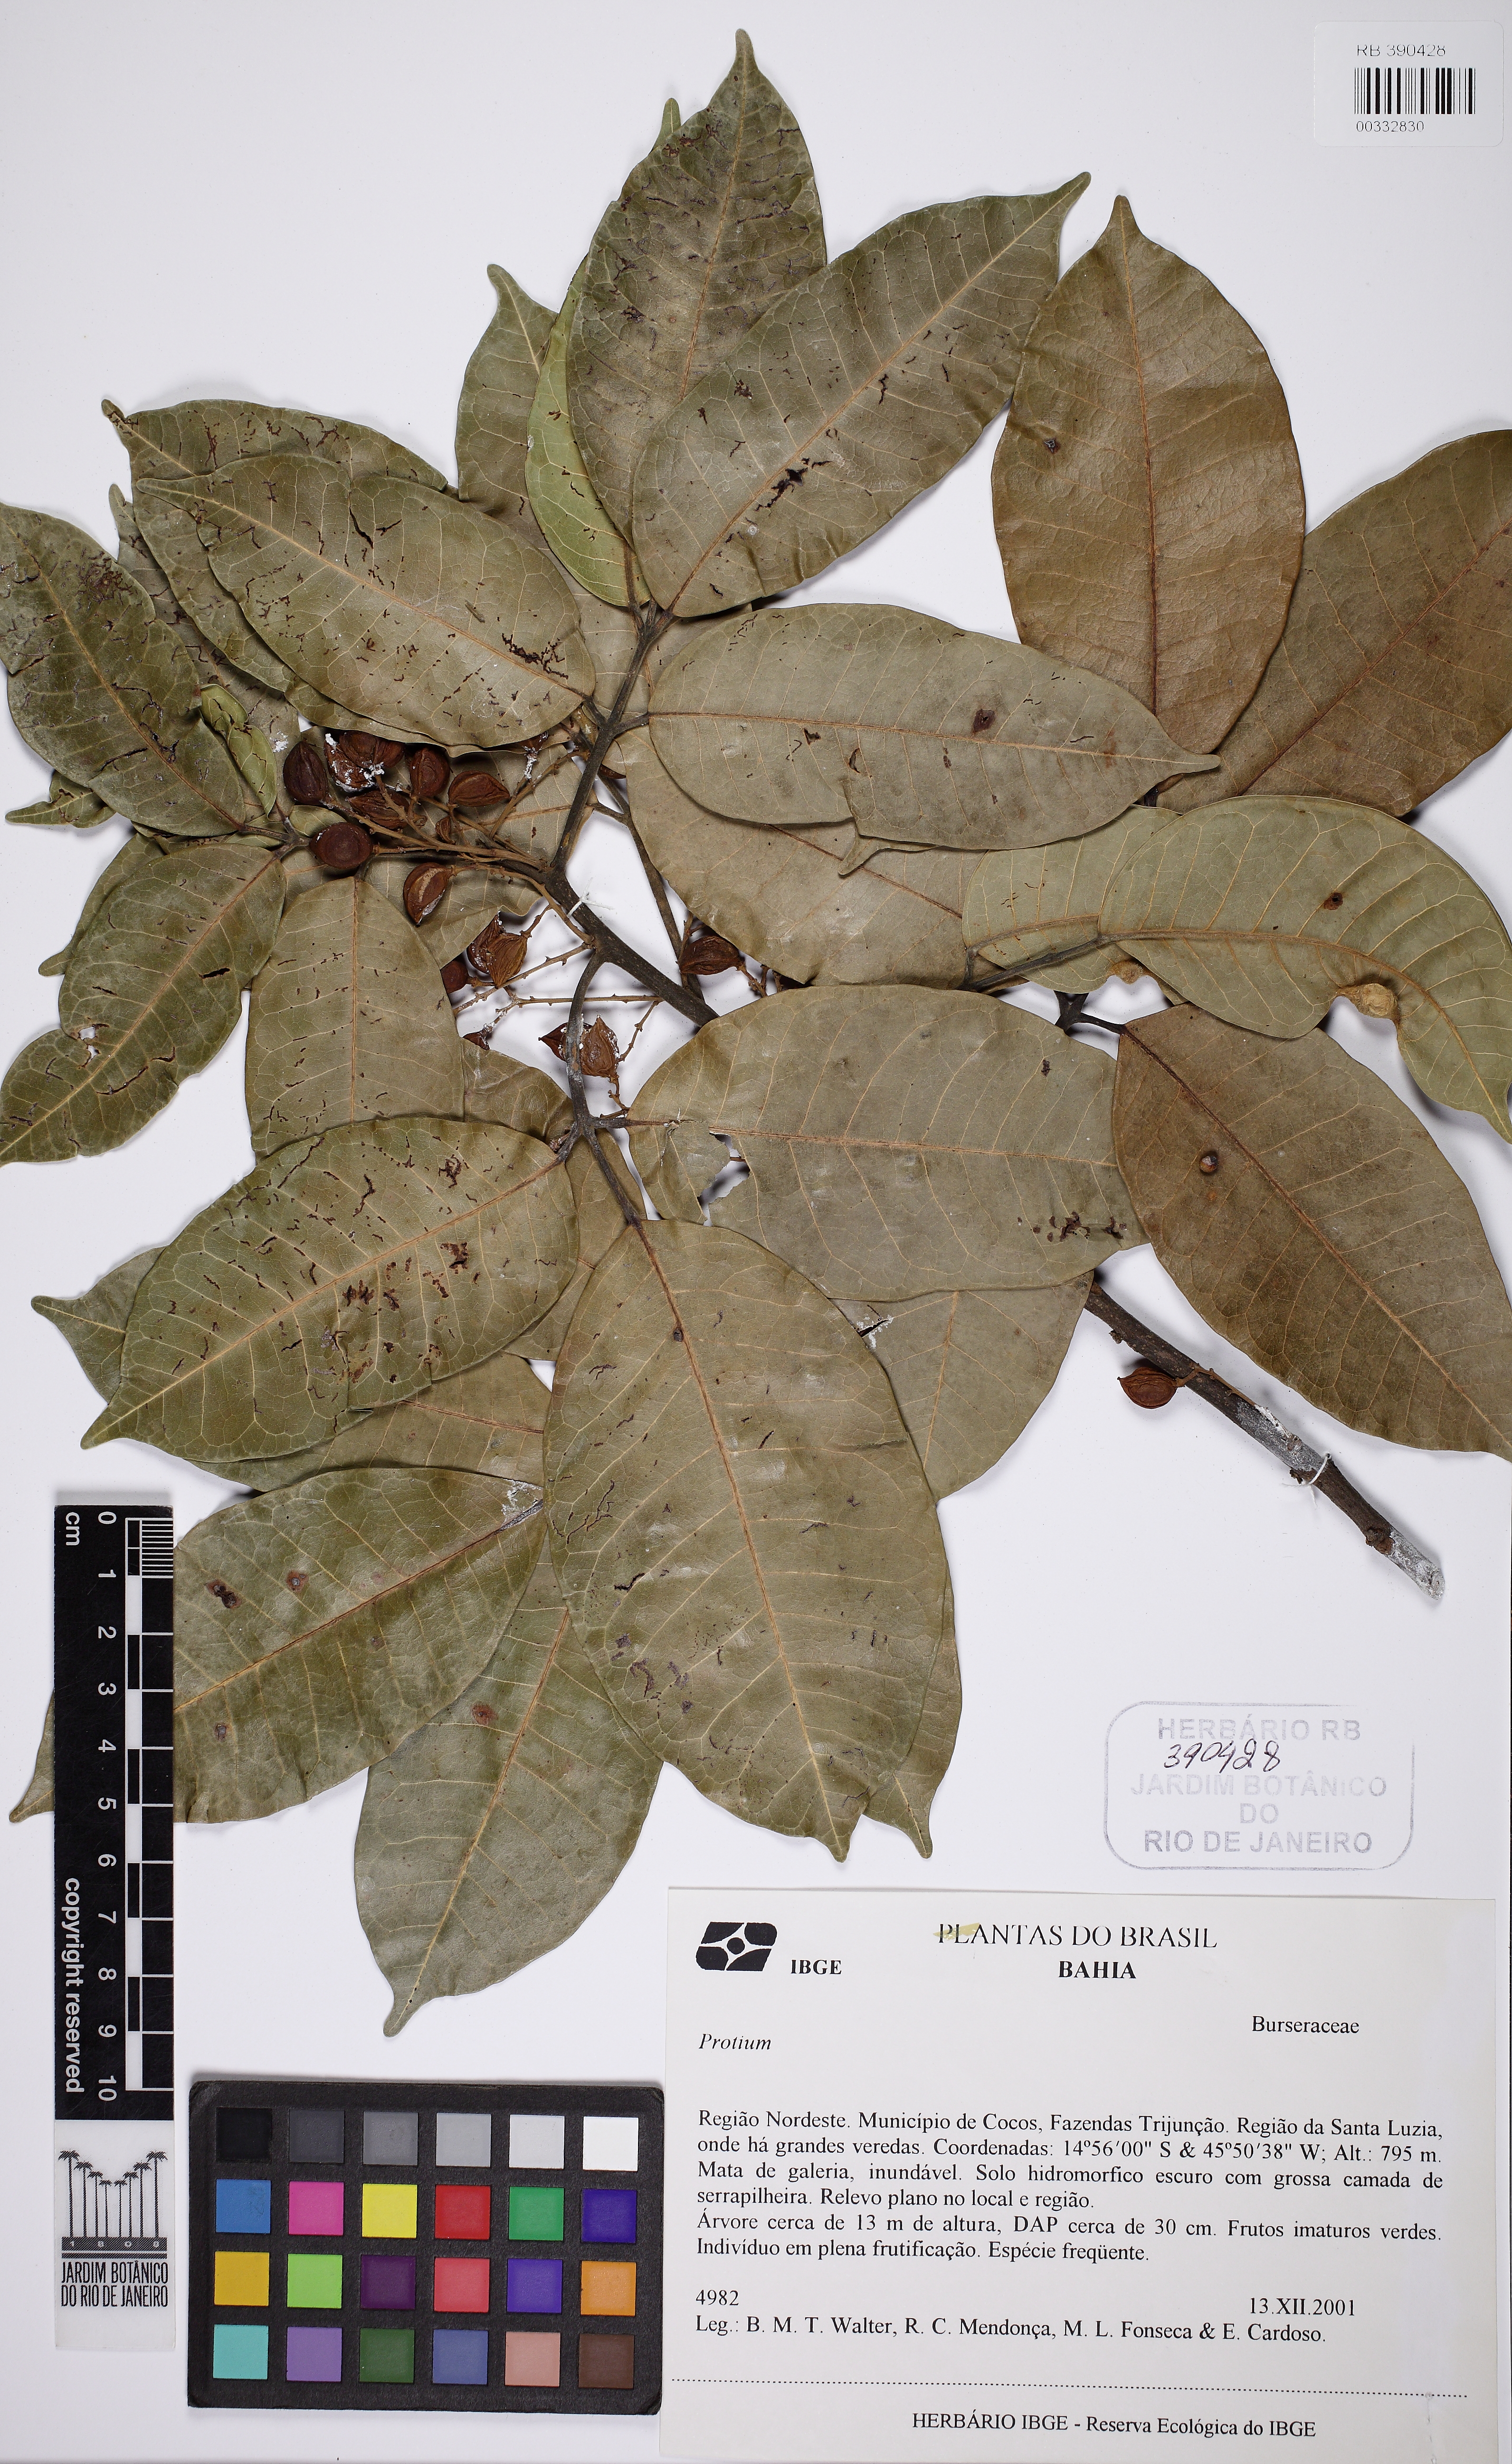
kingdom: Plantae
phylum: Tracheophyta
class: Magnoliopsida
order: Sapindales
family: Burseraceae
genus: Protium
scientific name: Protium spruceanum
